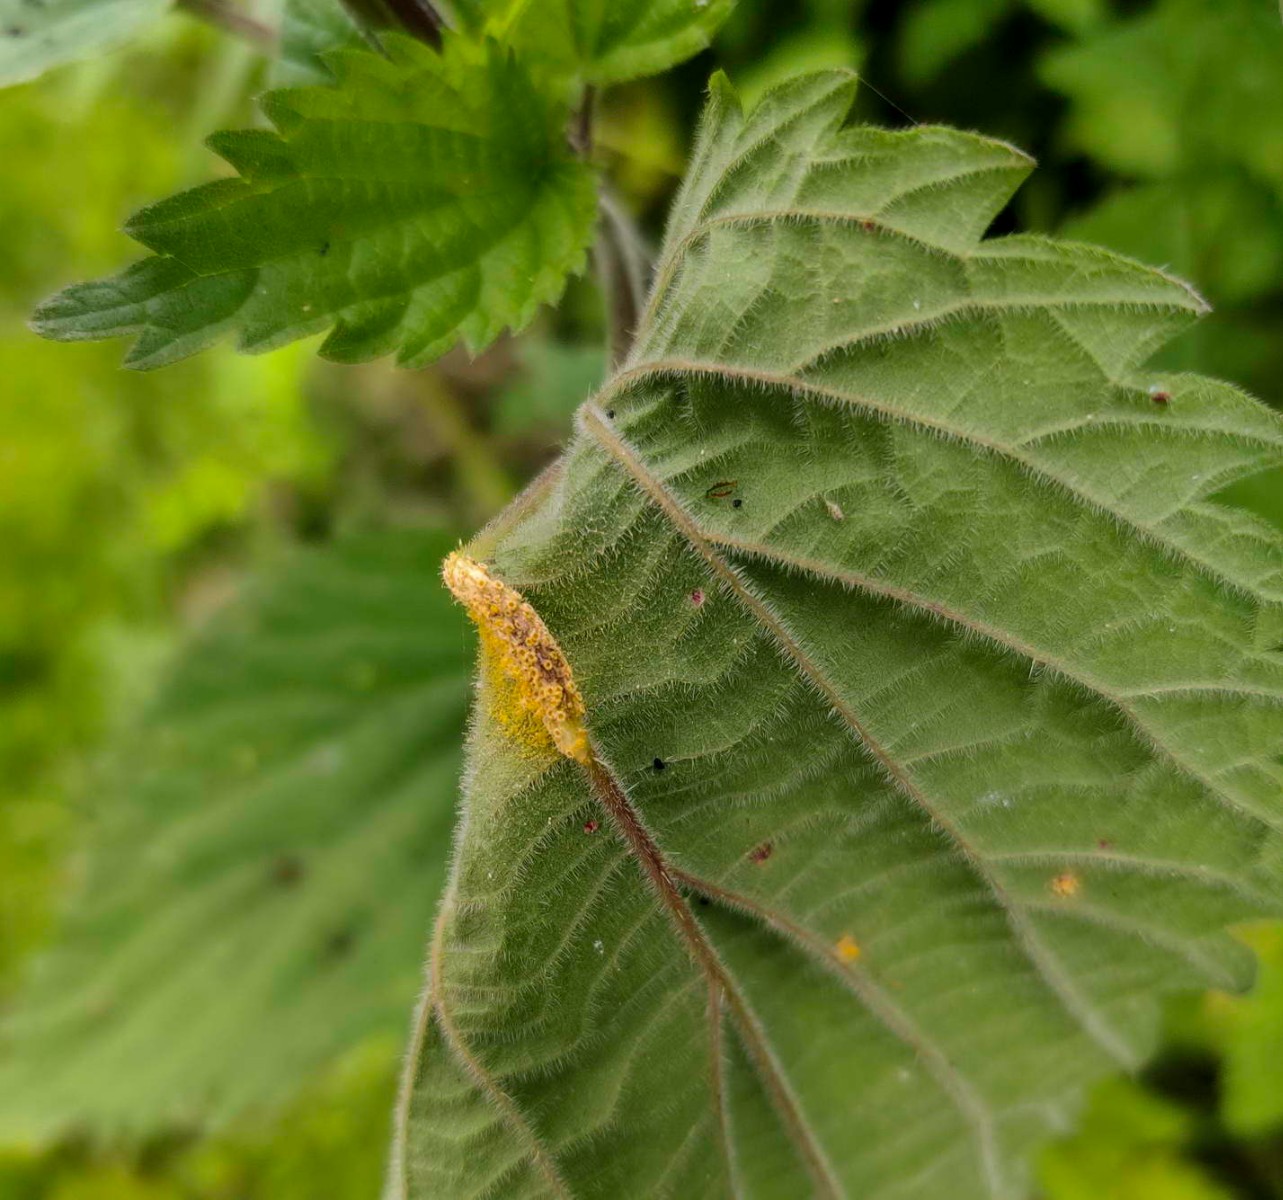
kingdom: Fungi
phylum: Basidiomycota
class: Pucciniomycetes
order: Pucciniales
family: Pucciniaceae
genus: Puccinia
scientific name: Puccinia urticata
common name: nældegalle-tvecellerust
